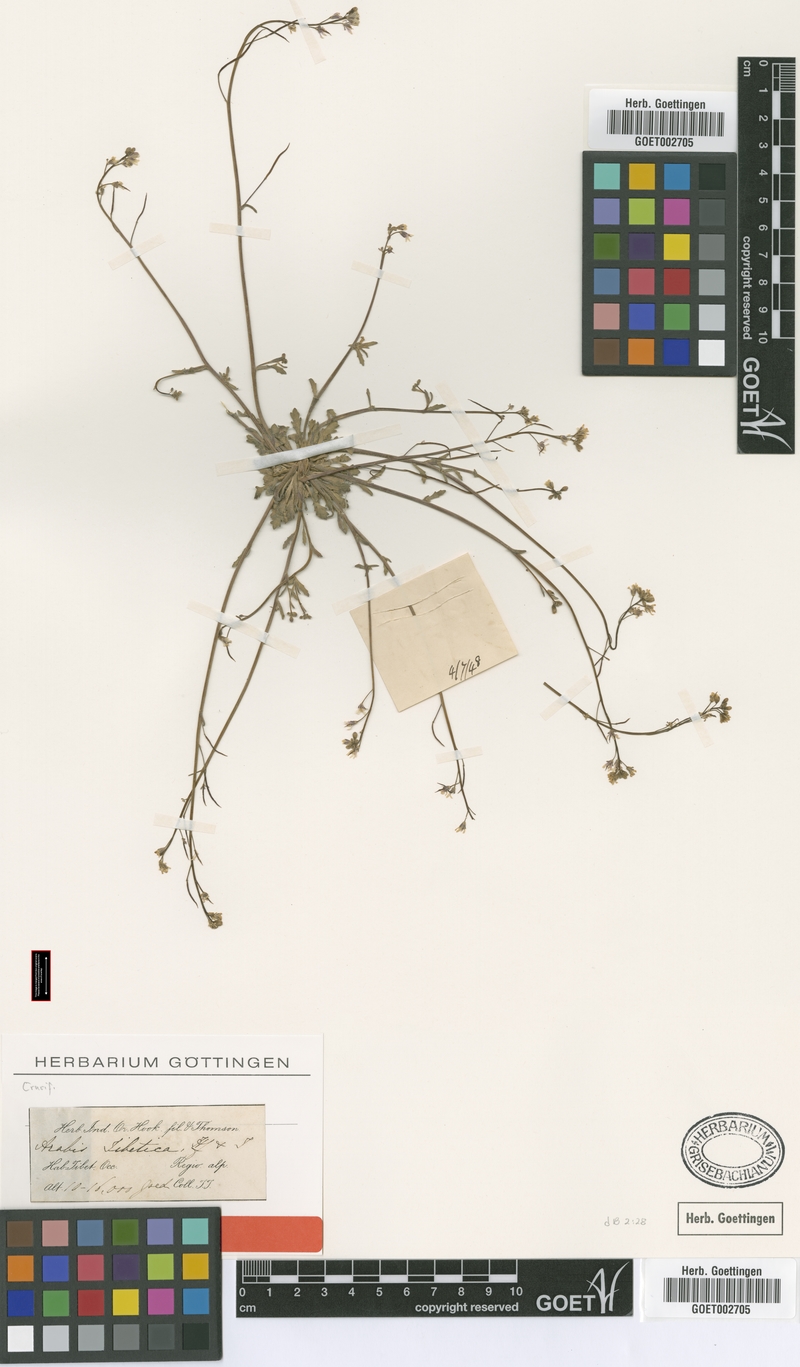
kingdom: Plantae
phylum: Tracheophyta
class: Magnoliopsida
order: Brassicales
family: Brassicaceae
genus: Crucihimalaya
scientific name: Crucihimalaya tibetica
